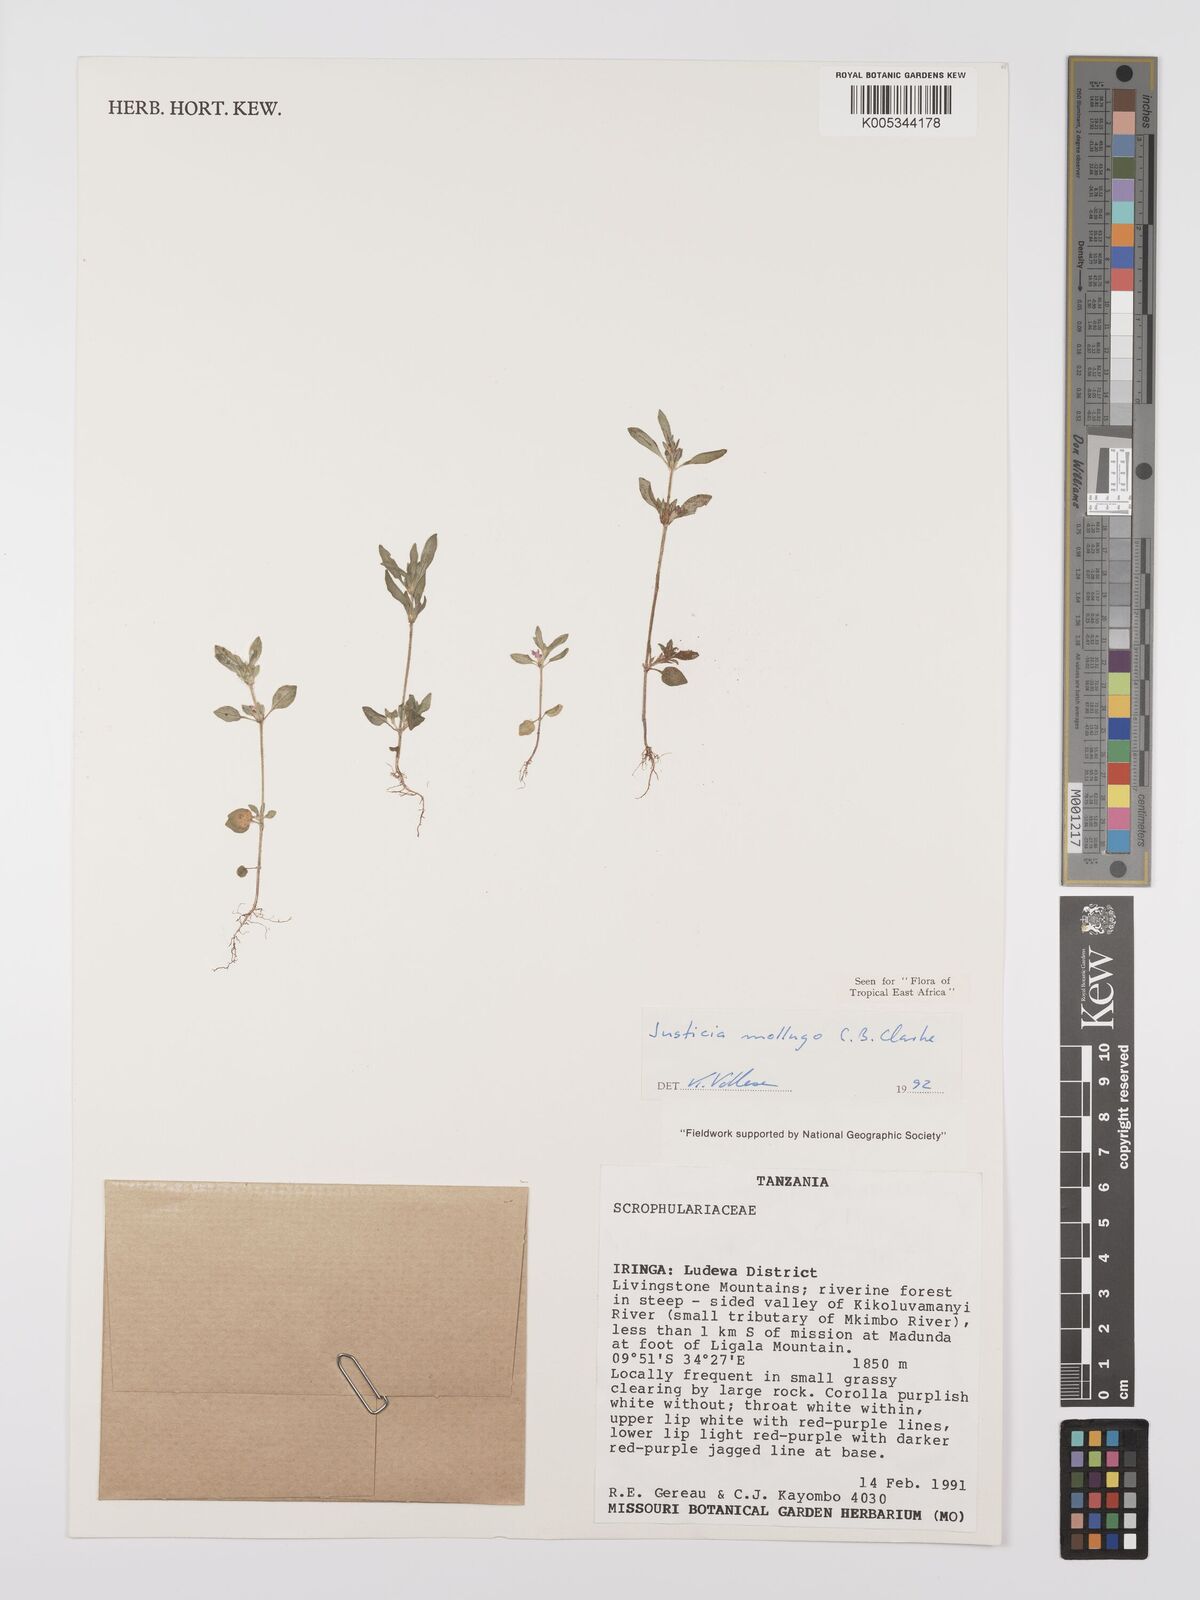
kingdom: Plantae
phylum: Tracheophyta
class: Magnoliopsida
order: Lamiales
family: Acanthaceae
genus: Justicia
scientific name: Justicia mollugo
